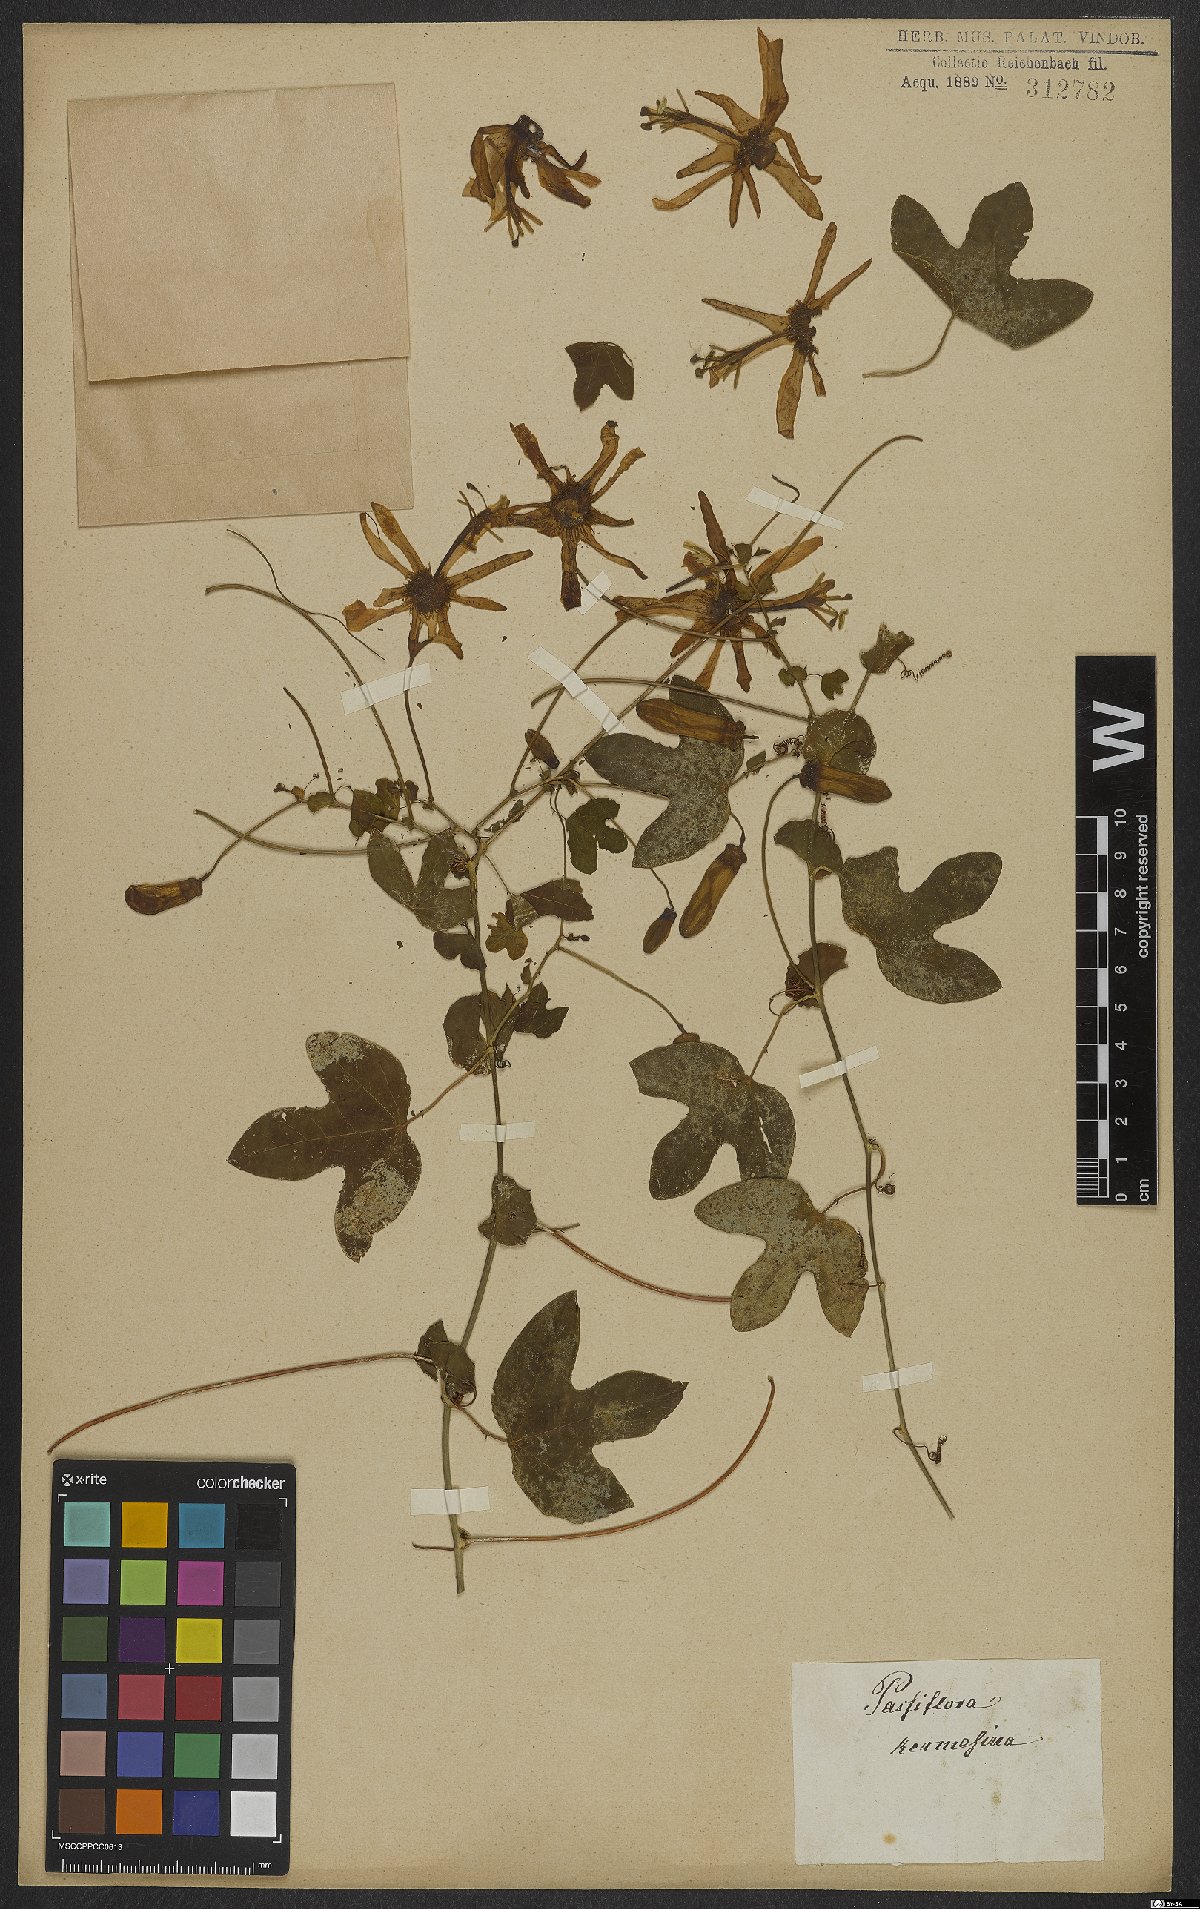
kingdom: Plantae
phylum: Tracheophyta
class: Magnoliopsida
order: Malpighiales
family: Passifloraceae
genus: Passiflora
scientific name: Passiflora kermesina
